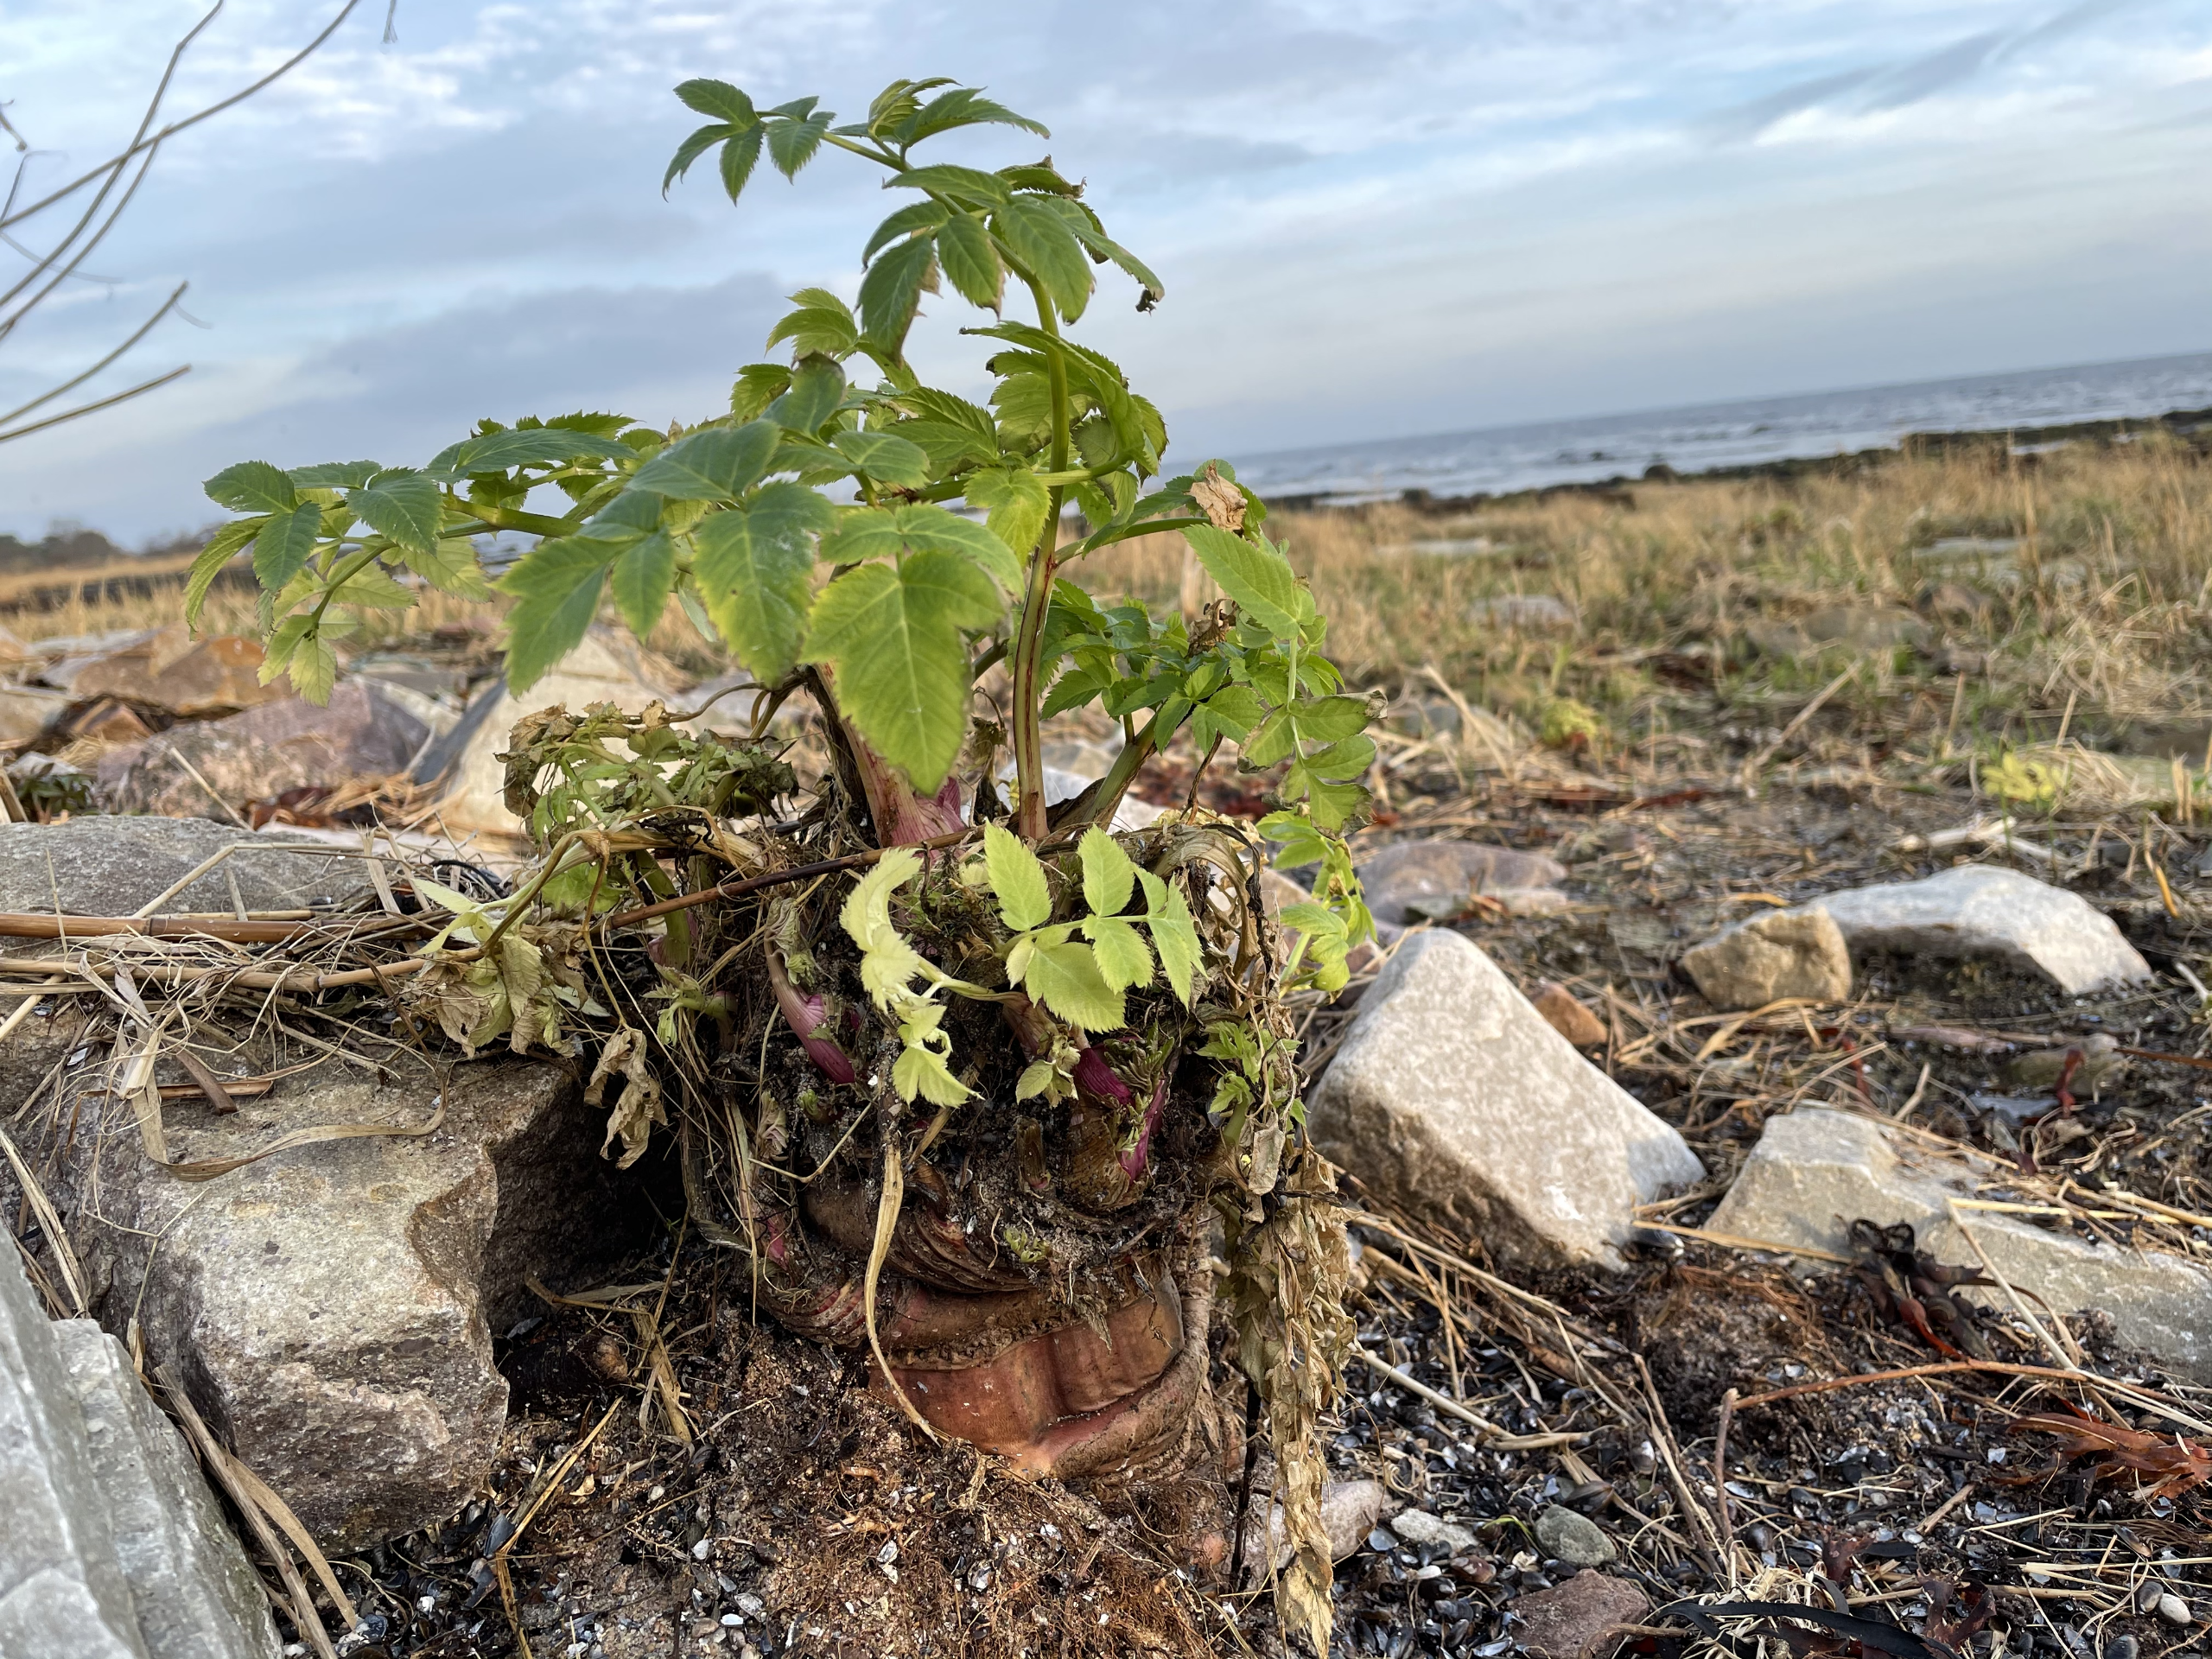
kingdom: Plantae
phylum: Tracheophyta
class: Magnoliopsida
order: Apiales
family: Apiaceae
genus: Angelica
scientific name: Angelica archangelica
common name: Kvan
